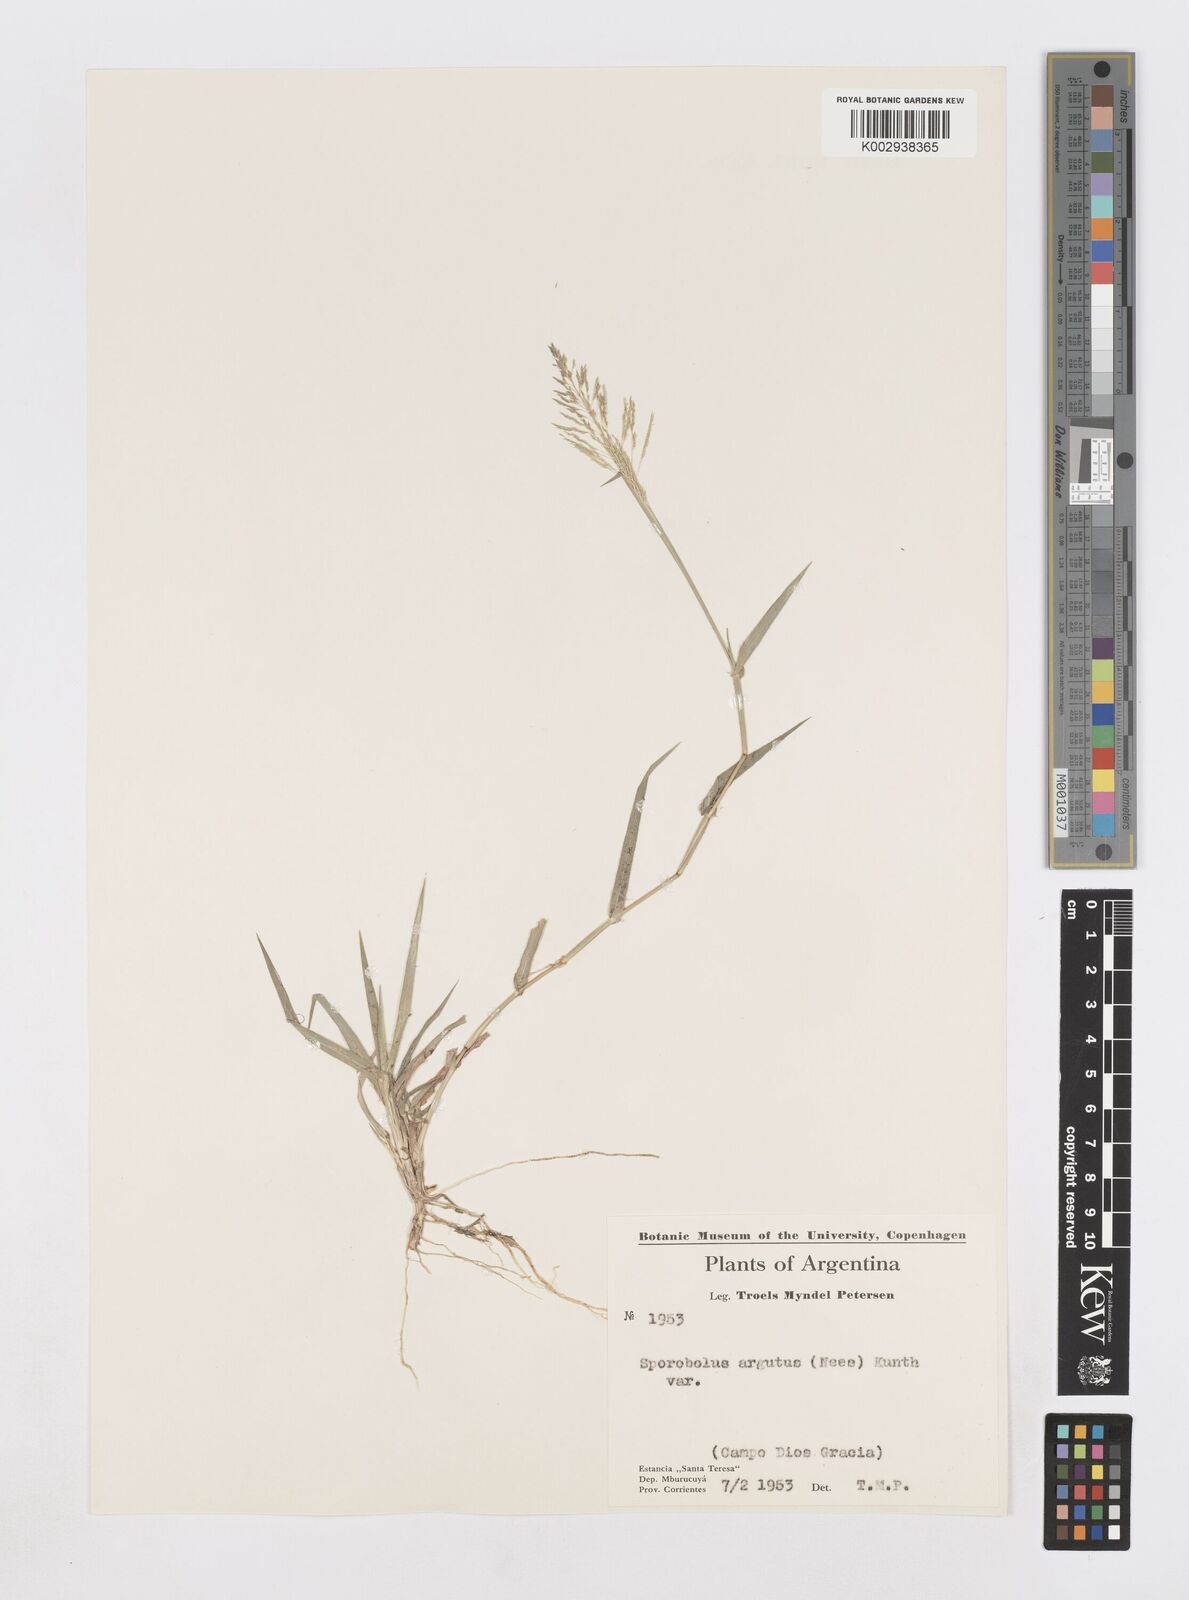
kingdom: Plantae
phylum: Tracheophyta
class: Liliopsida
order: Poales
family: Poaceae
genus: Sporobolus
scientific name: Sporobolus pyramidatus
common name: Whorled dropseed
